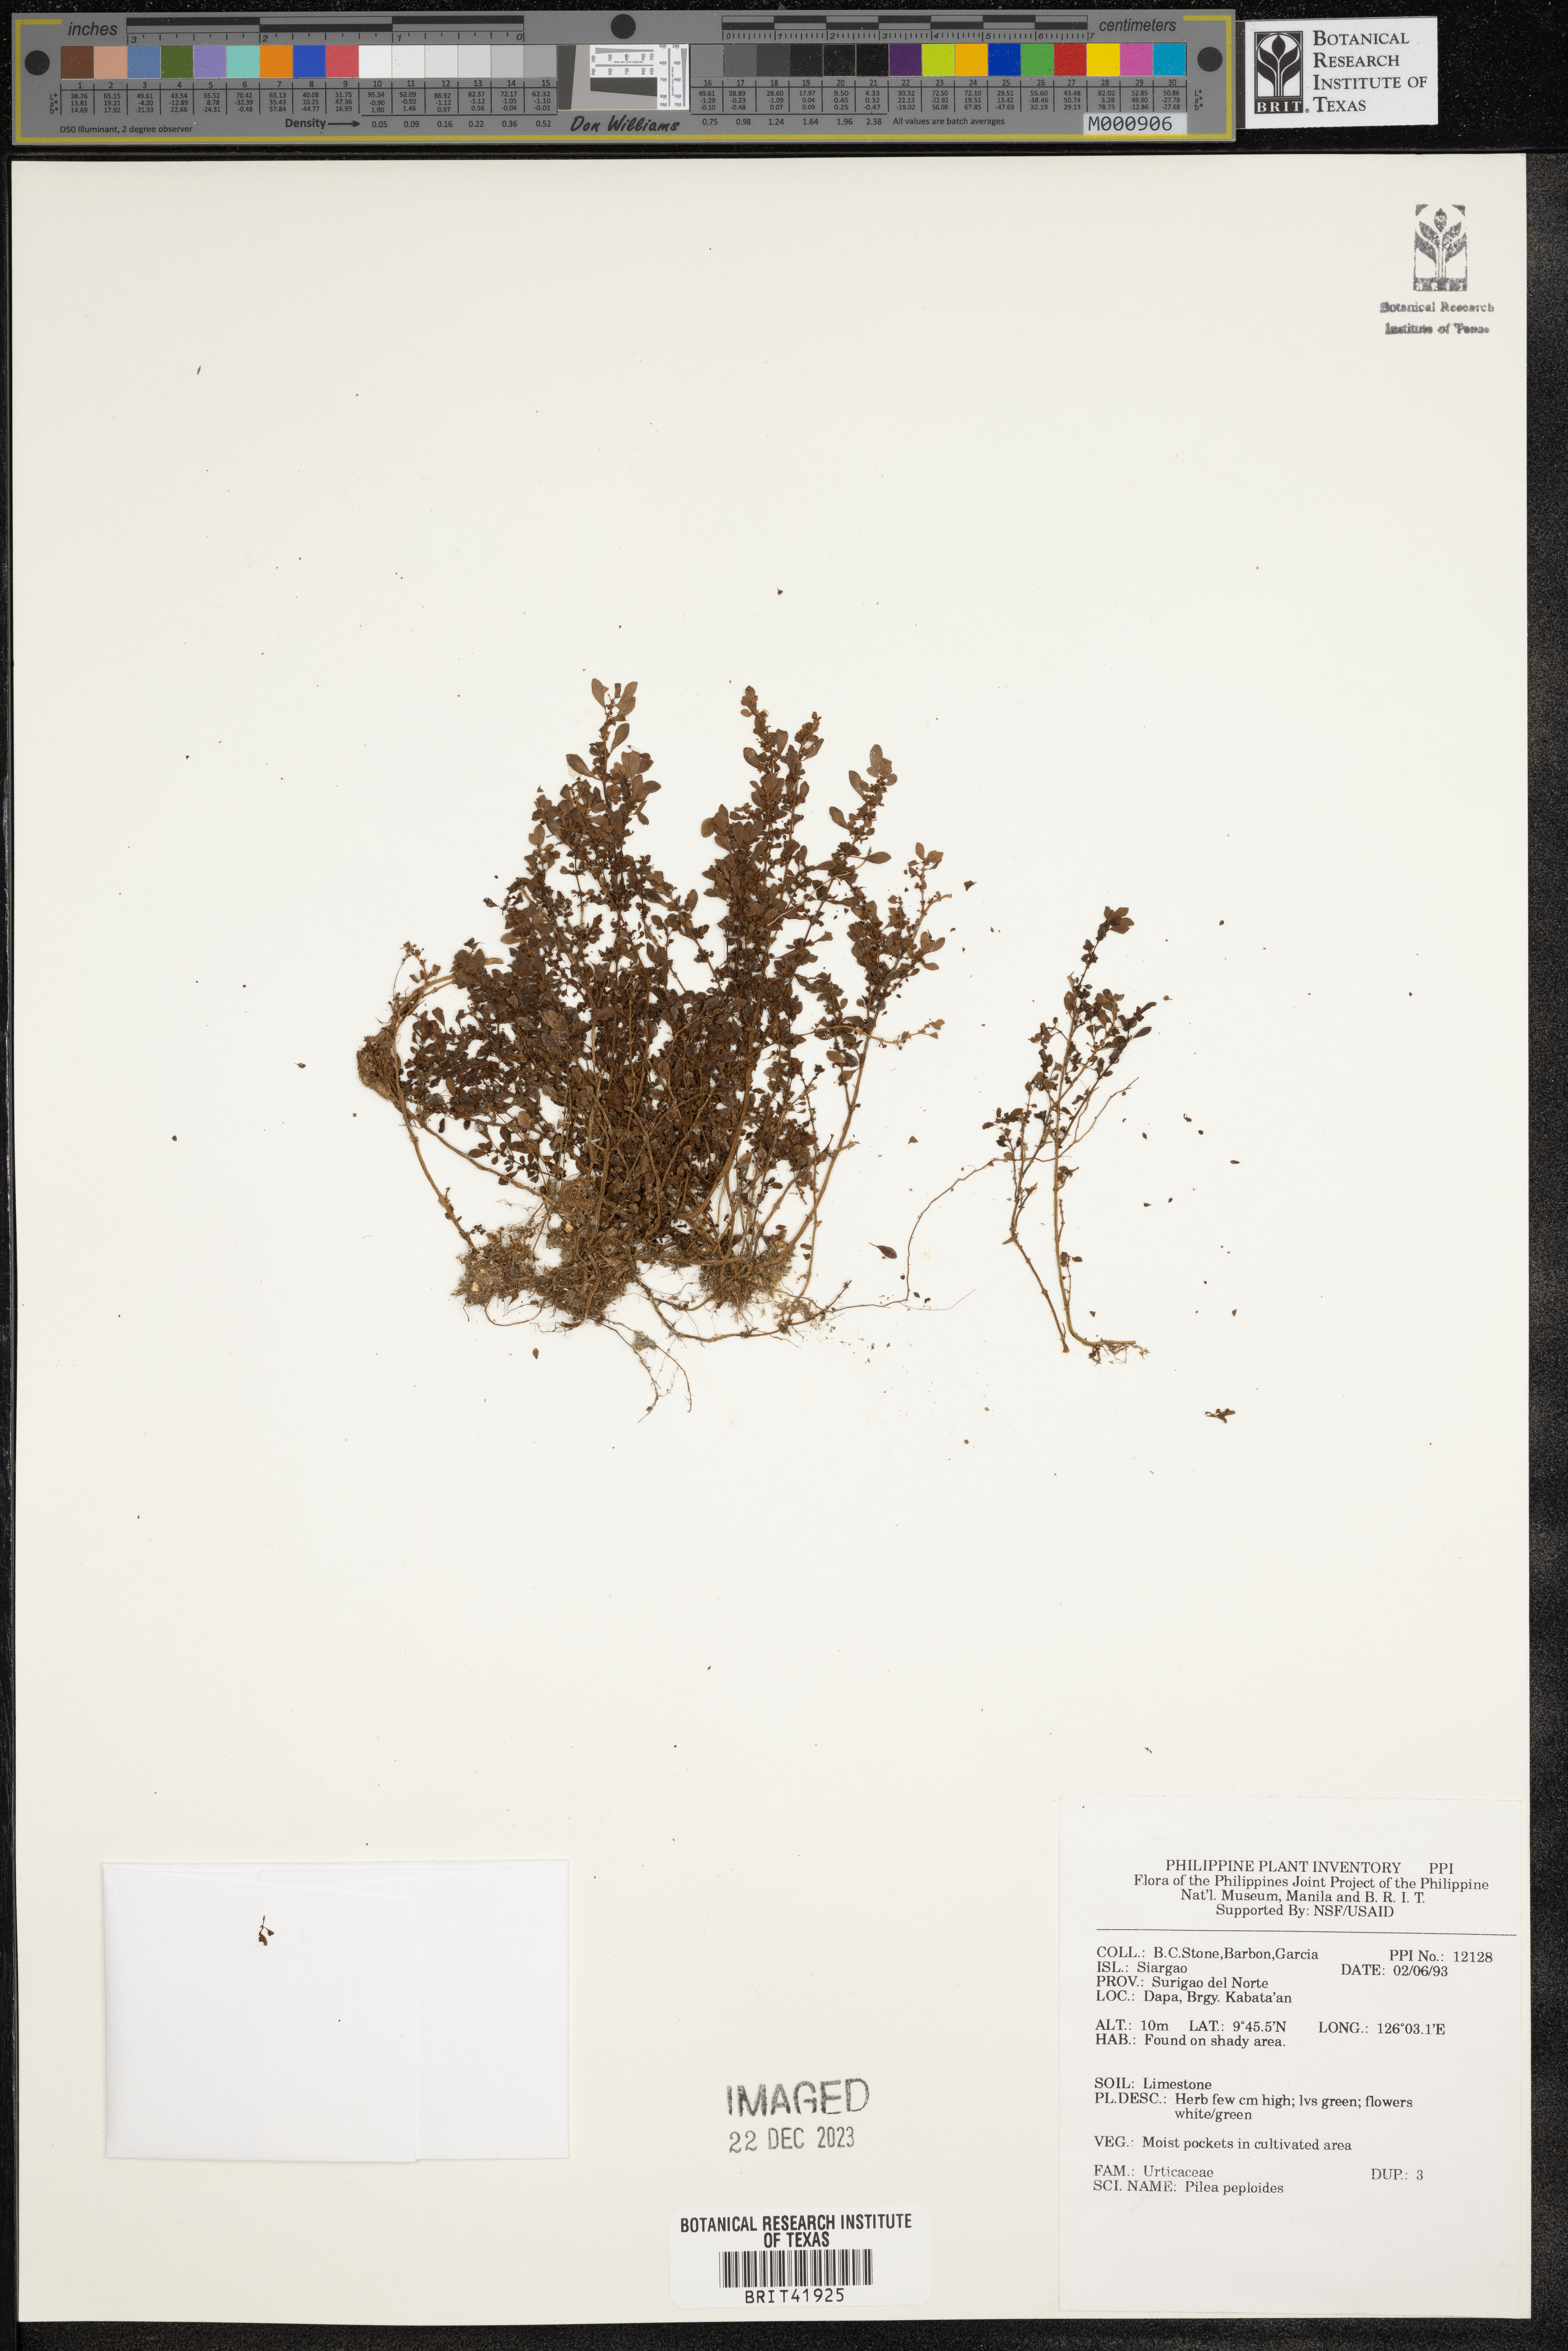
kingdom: Plantae
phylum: Tracheophyta
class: Magnoliopsida
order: Rosales
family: Urticaceae
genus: Pilea
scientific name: Pilea peploides
